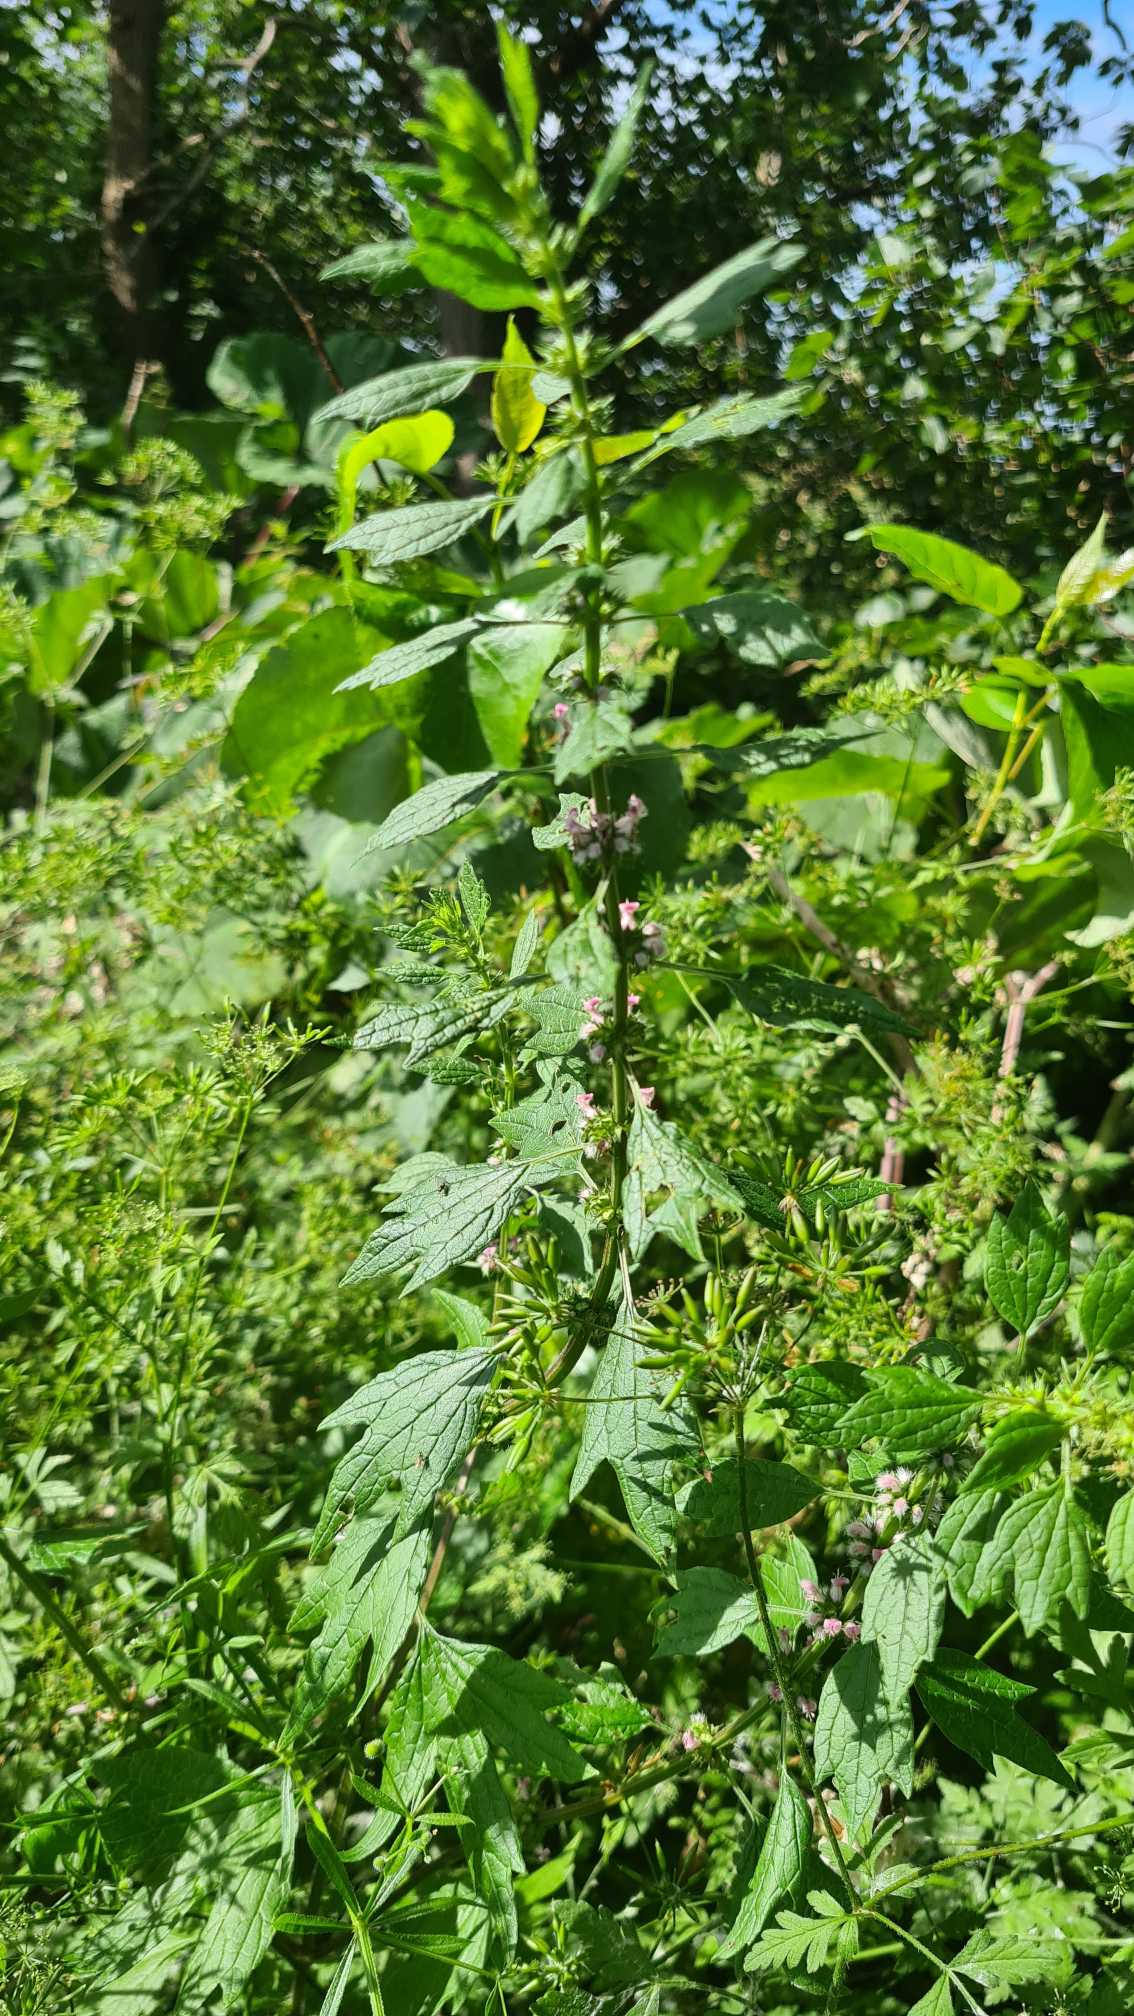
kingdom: Plantae
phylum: Tracheophyta
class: Magnoliopsida
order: Lamiales
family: Lamiaceae
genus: Leonurus
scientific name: Leonurus cardiaca
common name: Hjertespand
